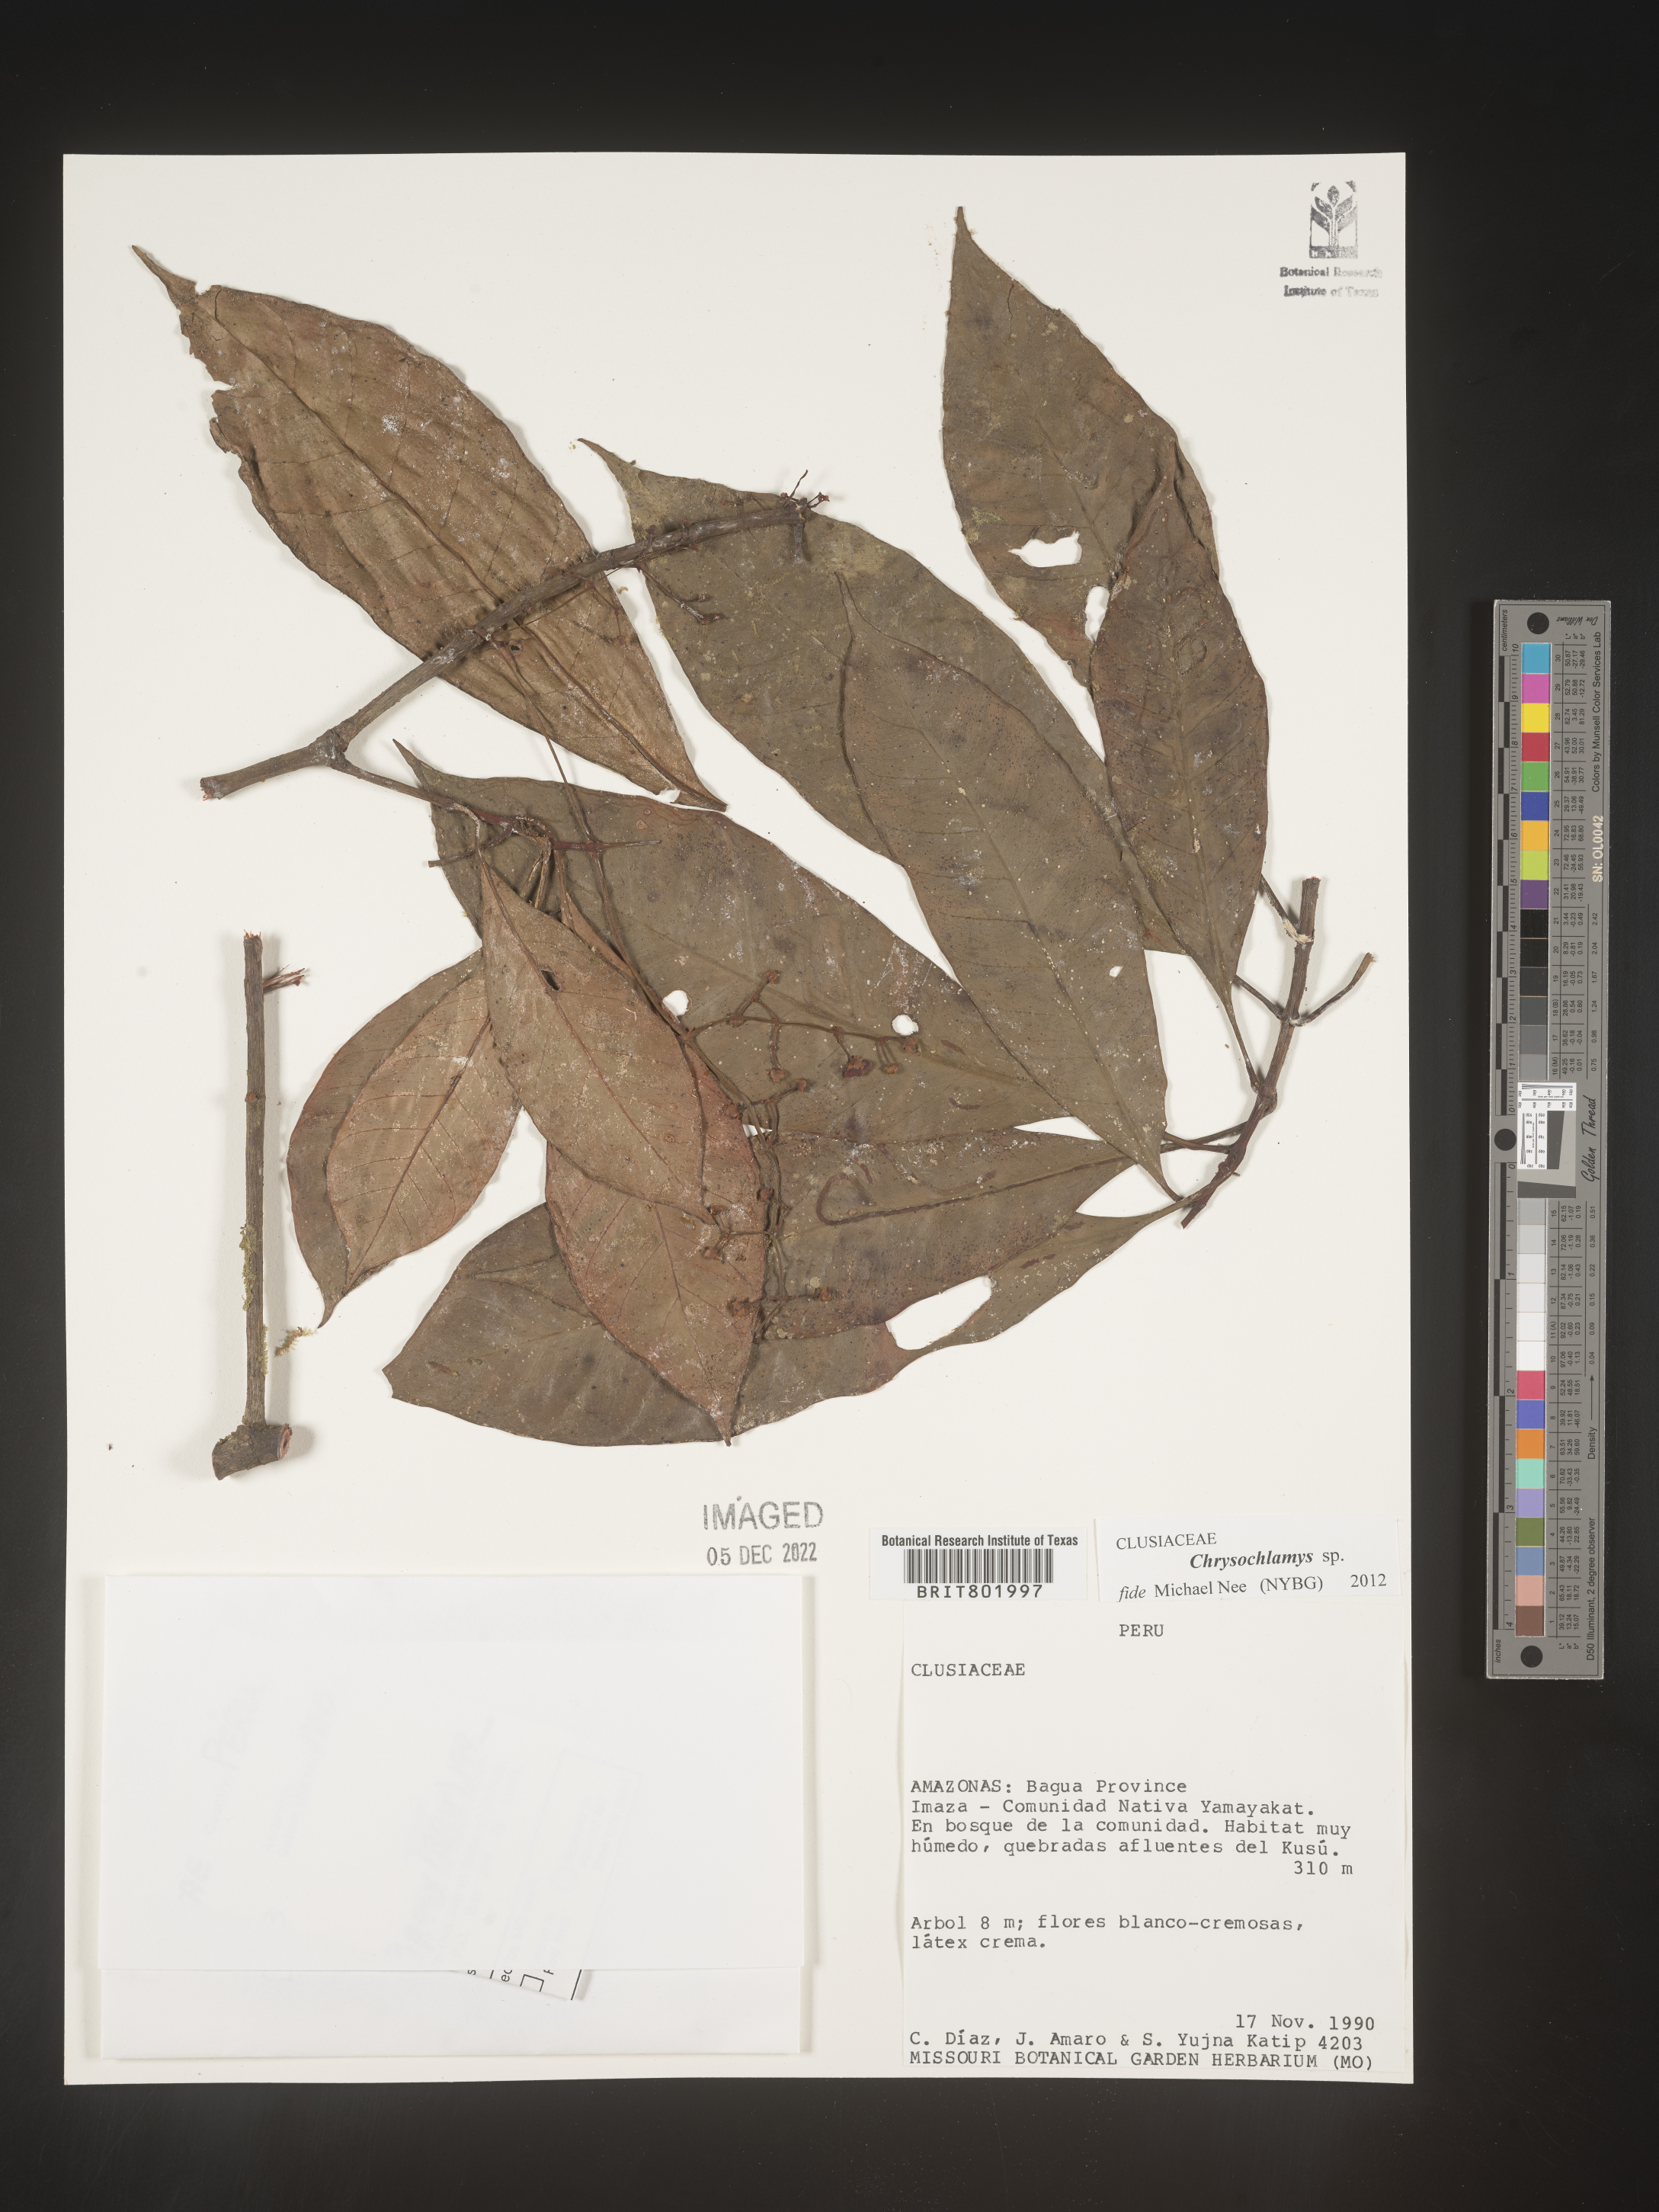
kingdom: Plantae
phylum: Tracheophyta
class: Magnoliopsida
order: Malpighiales
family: Clusiaceae
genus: Chrysochlamys
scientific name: Chrysochlamys
